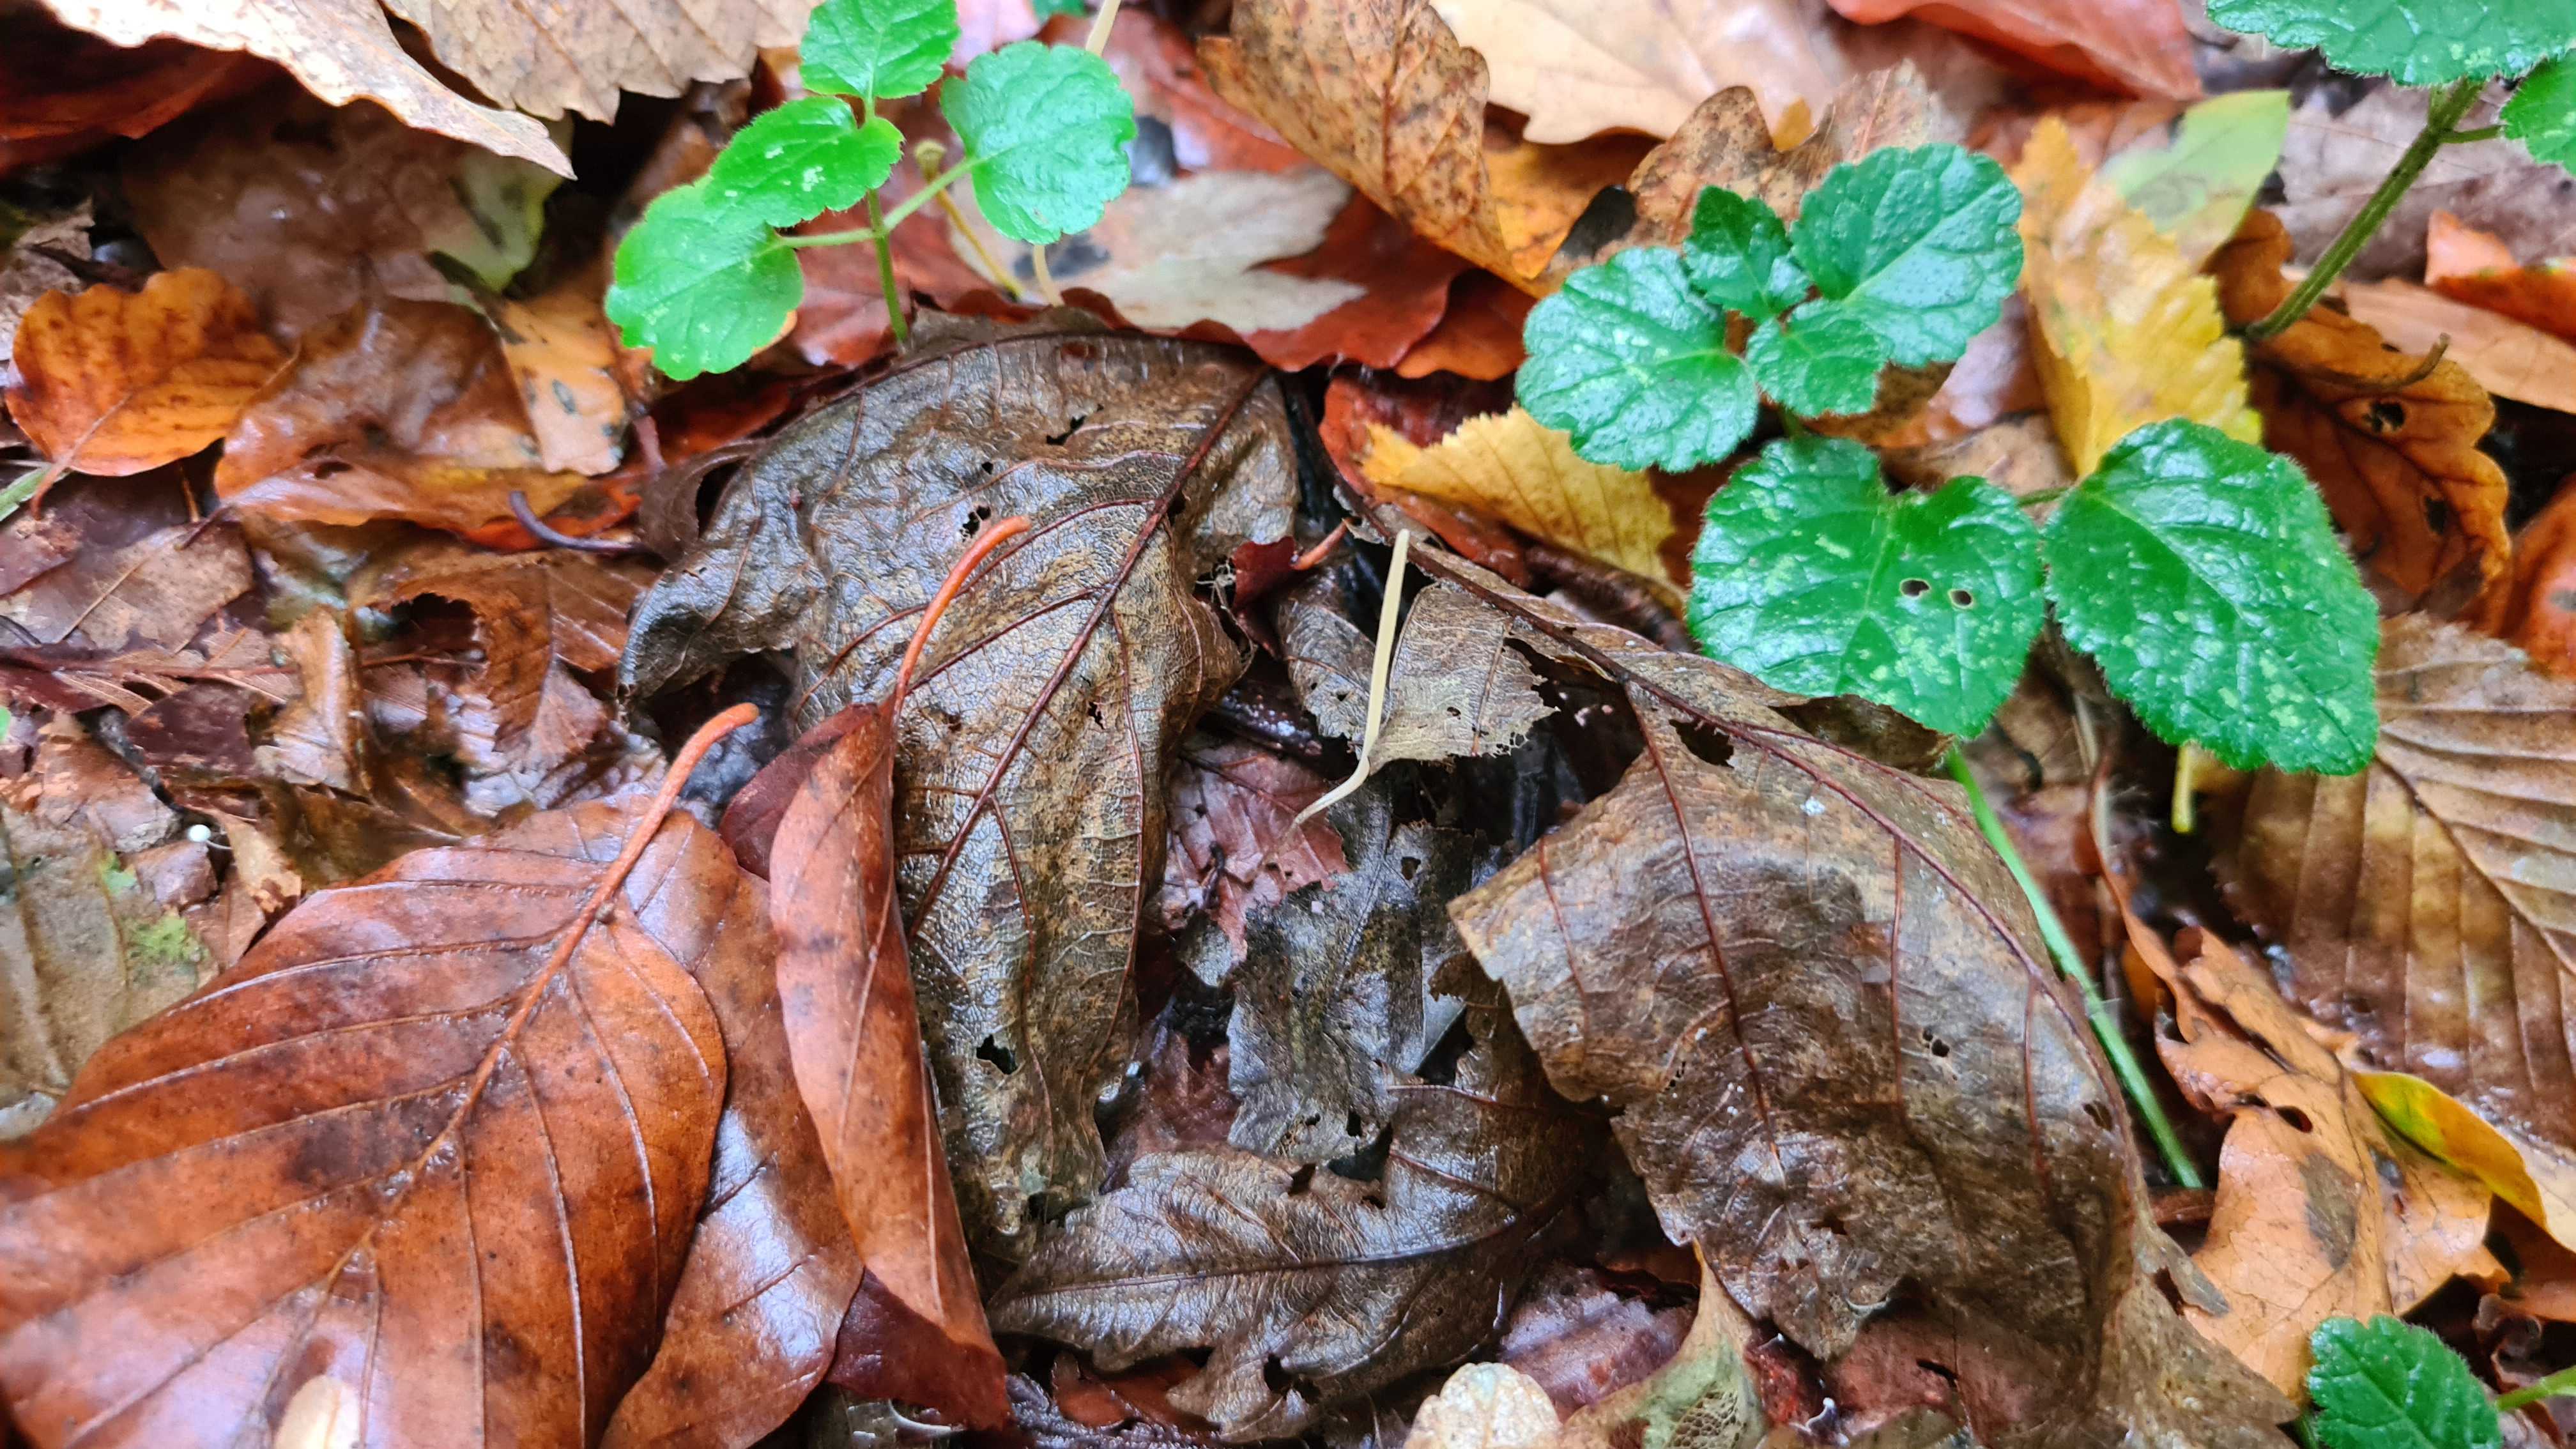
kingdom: Fungi
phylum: Basidiomycota
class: Agaricomycetes
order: Agaricales
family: Typhulaceae
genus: Typhula
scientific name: Typhula juncea
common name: trådagtig rørkølle
